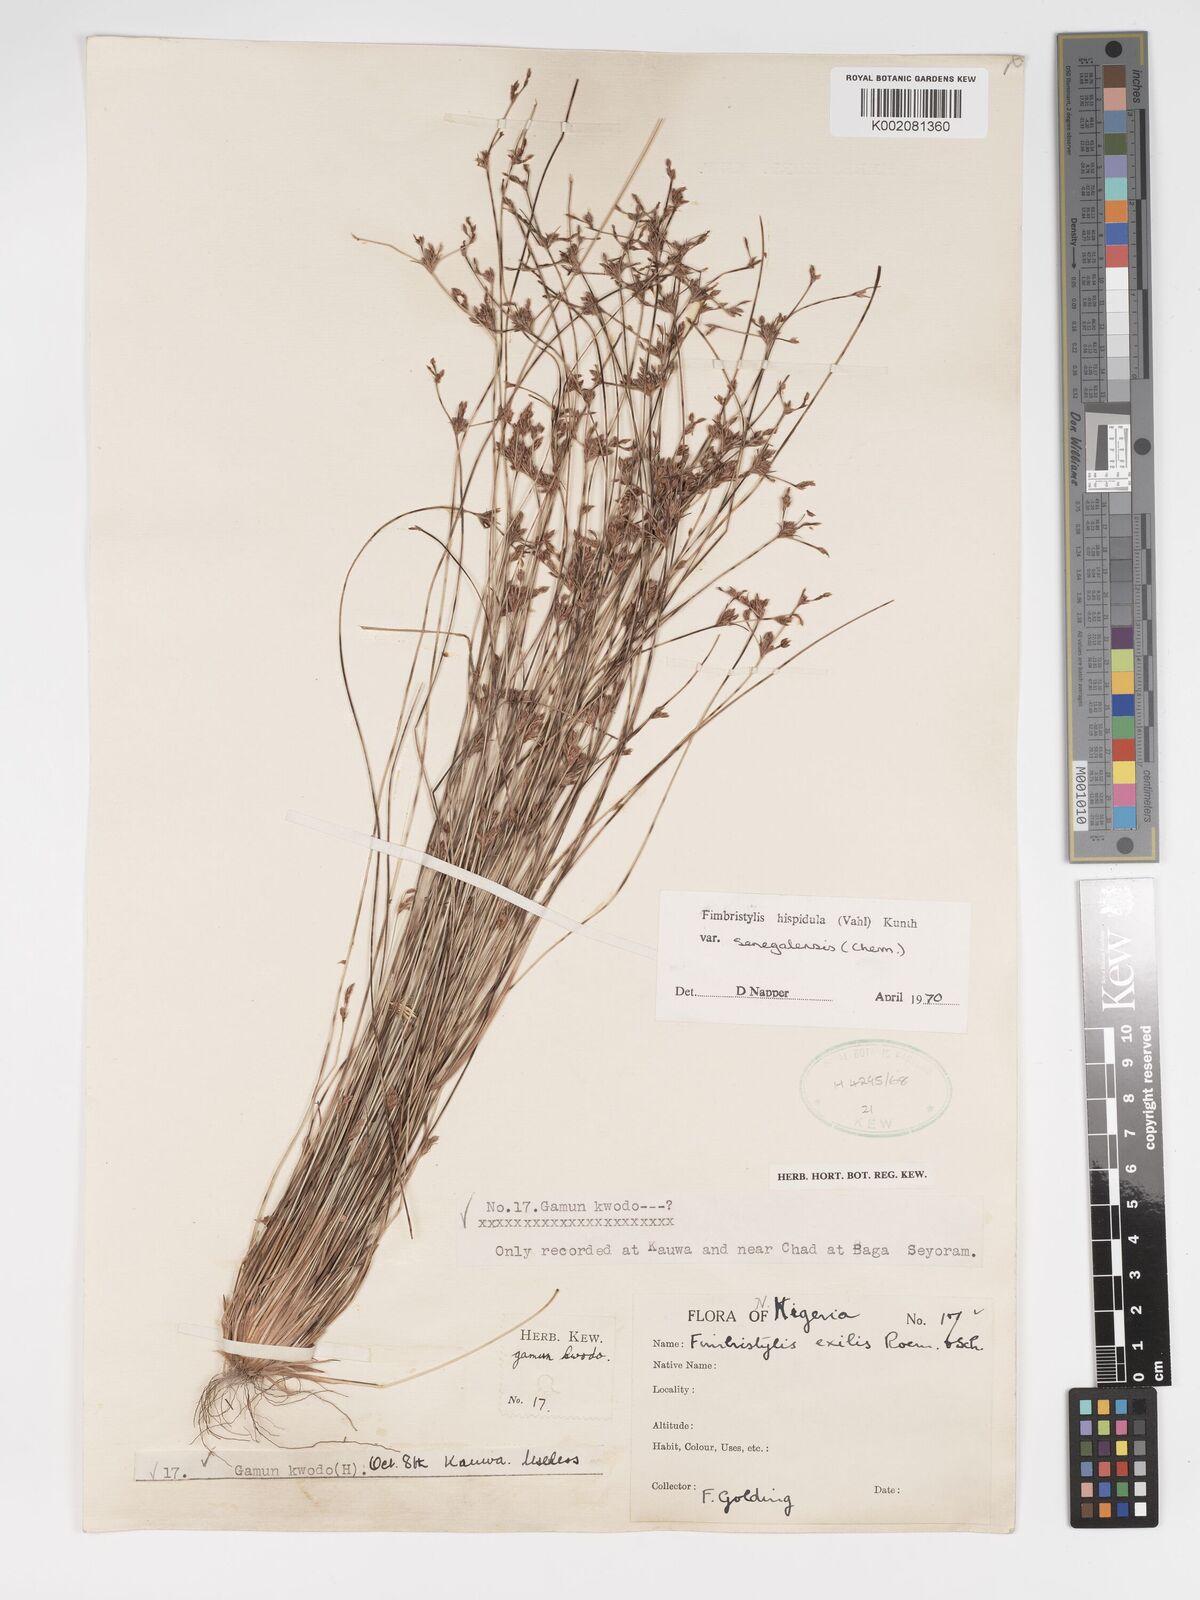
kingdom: Plantae
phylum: Tracheophyta
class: Liliopsida
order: Poales
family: Cyperaceae
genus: Bulbostylis
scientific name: Bulbostylis hispidula
